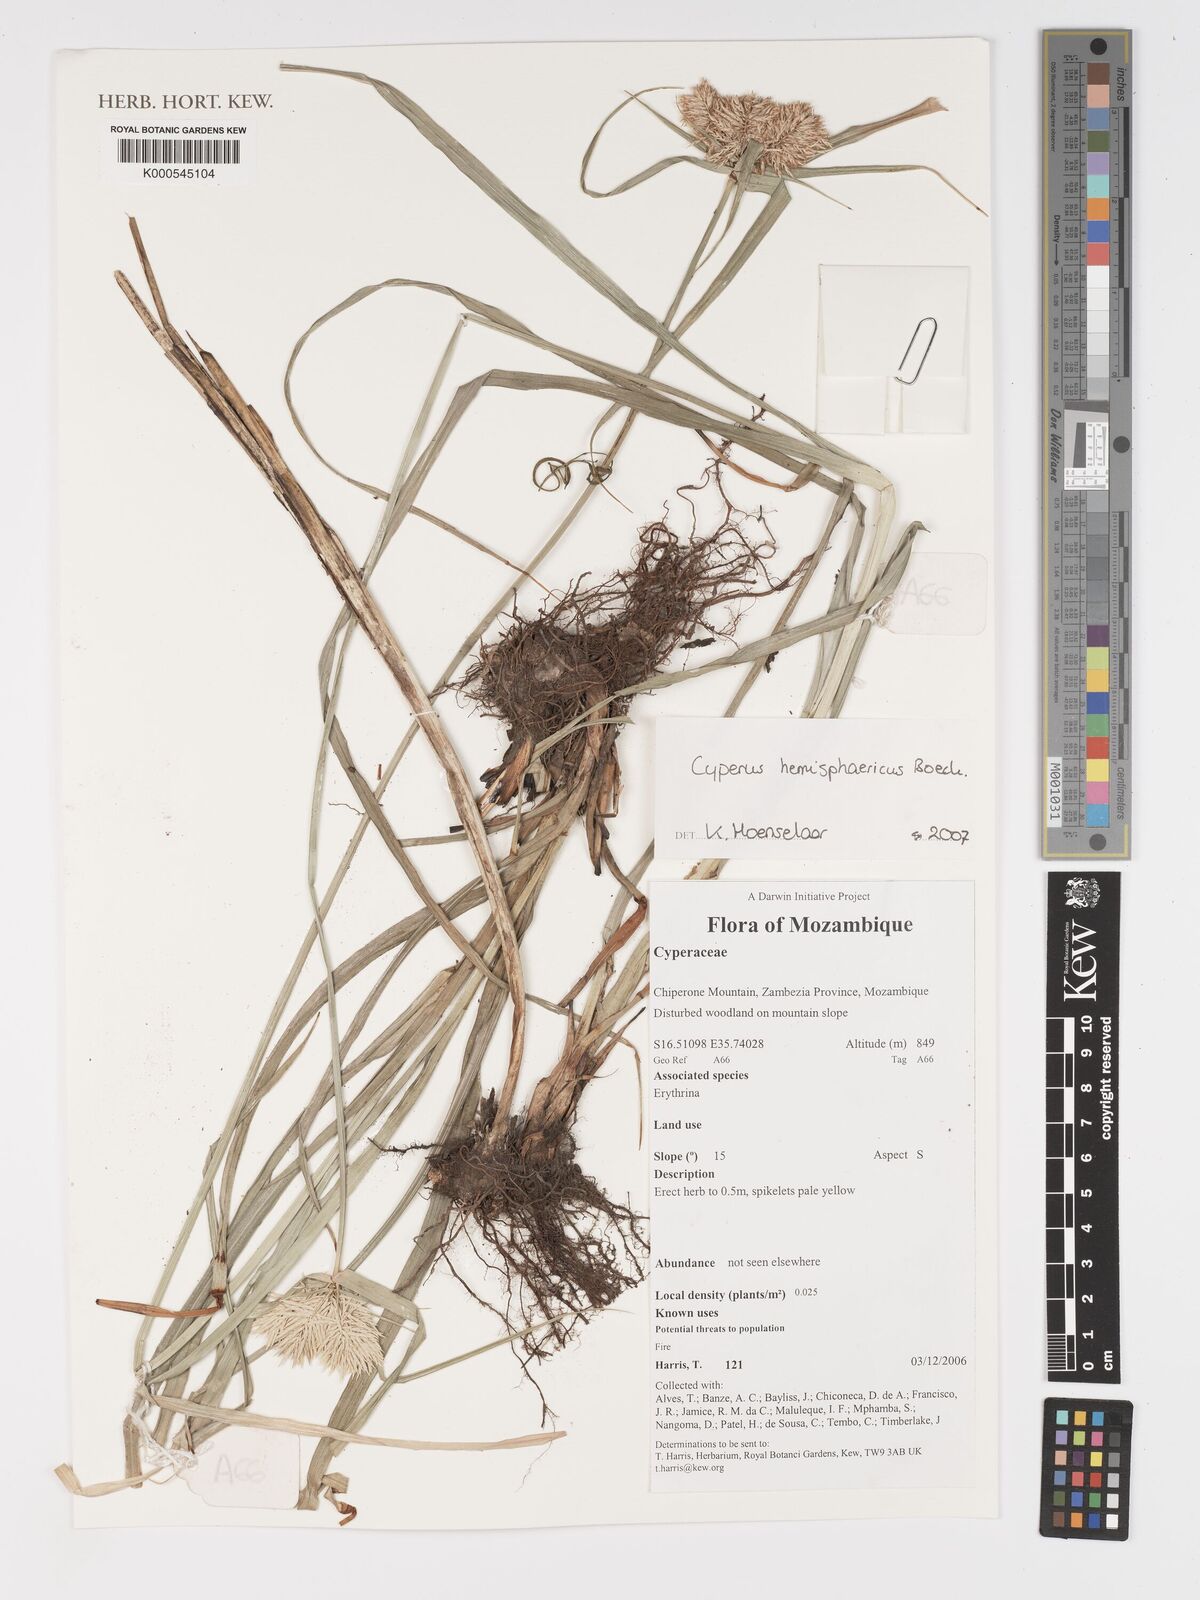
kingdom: Plantae
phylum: Tracheophyta
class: Liliopsida
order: Poales
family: Cyperaceae
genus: Cyperus
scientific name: Cyperus hemisphaericus
